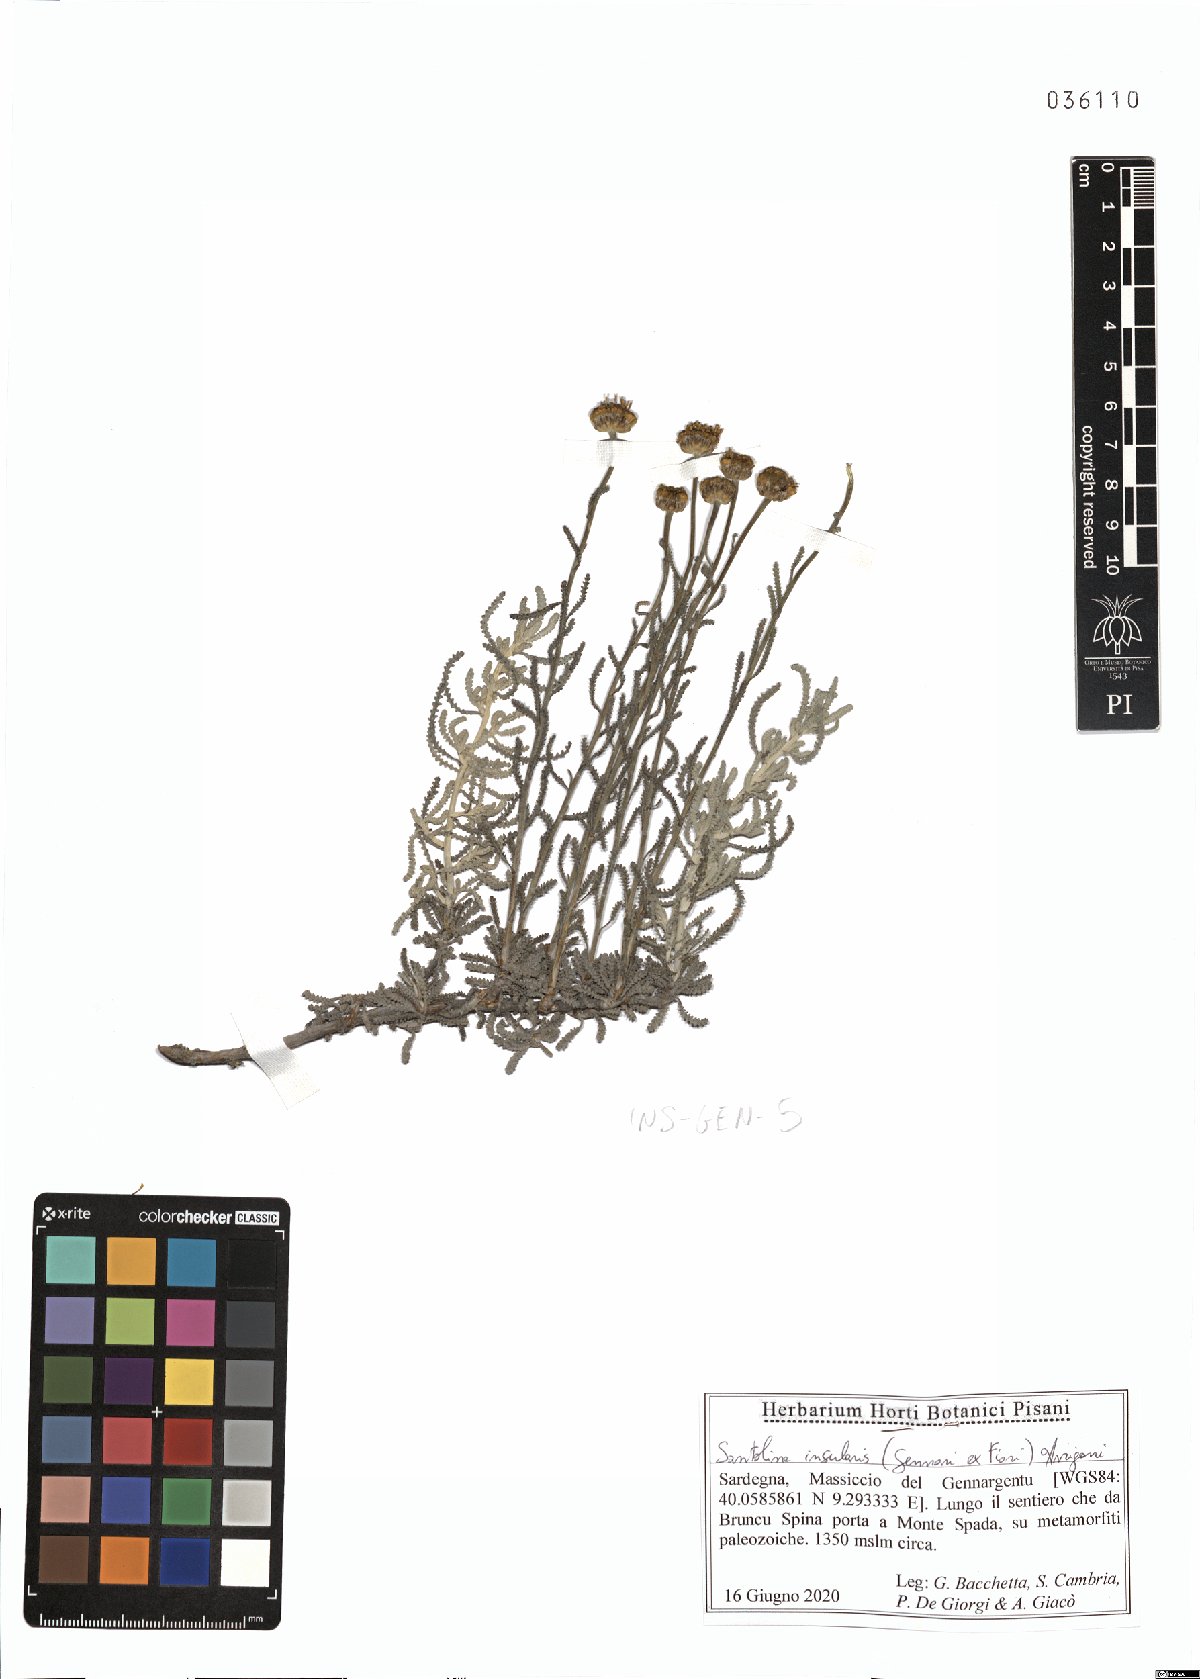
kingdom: Plantae
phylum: Tracheophyta
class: Magnoliopsida
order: Asterales
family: Asteraceae
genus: Santolina
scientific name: Santolina insularis
